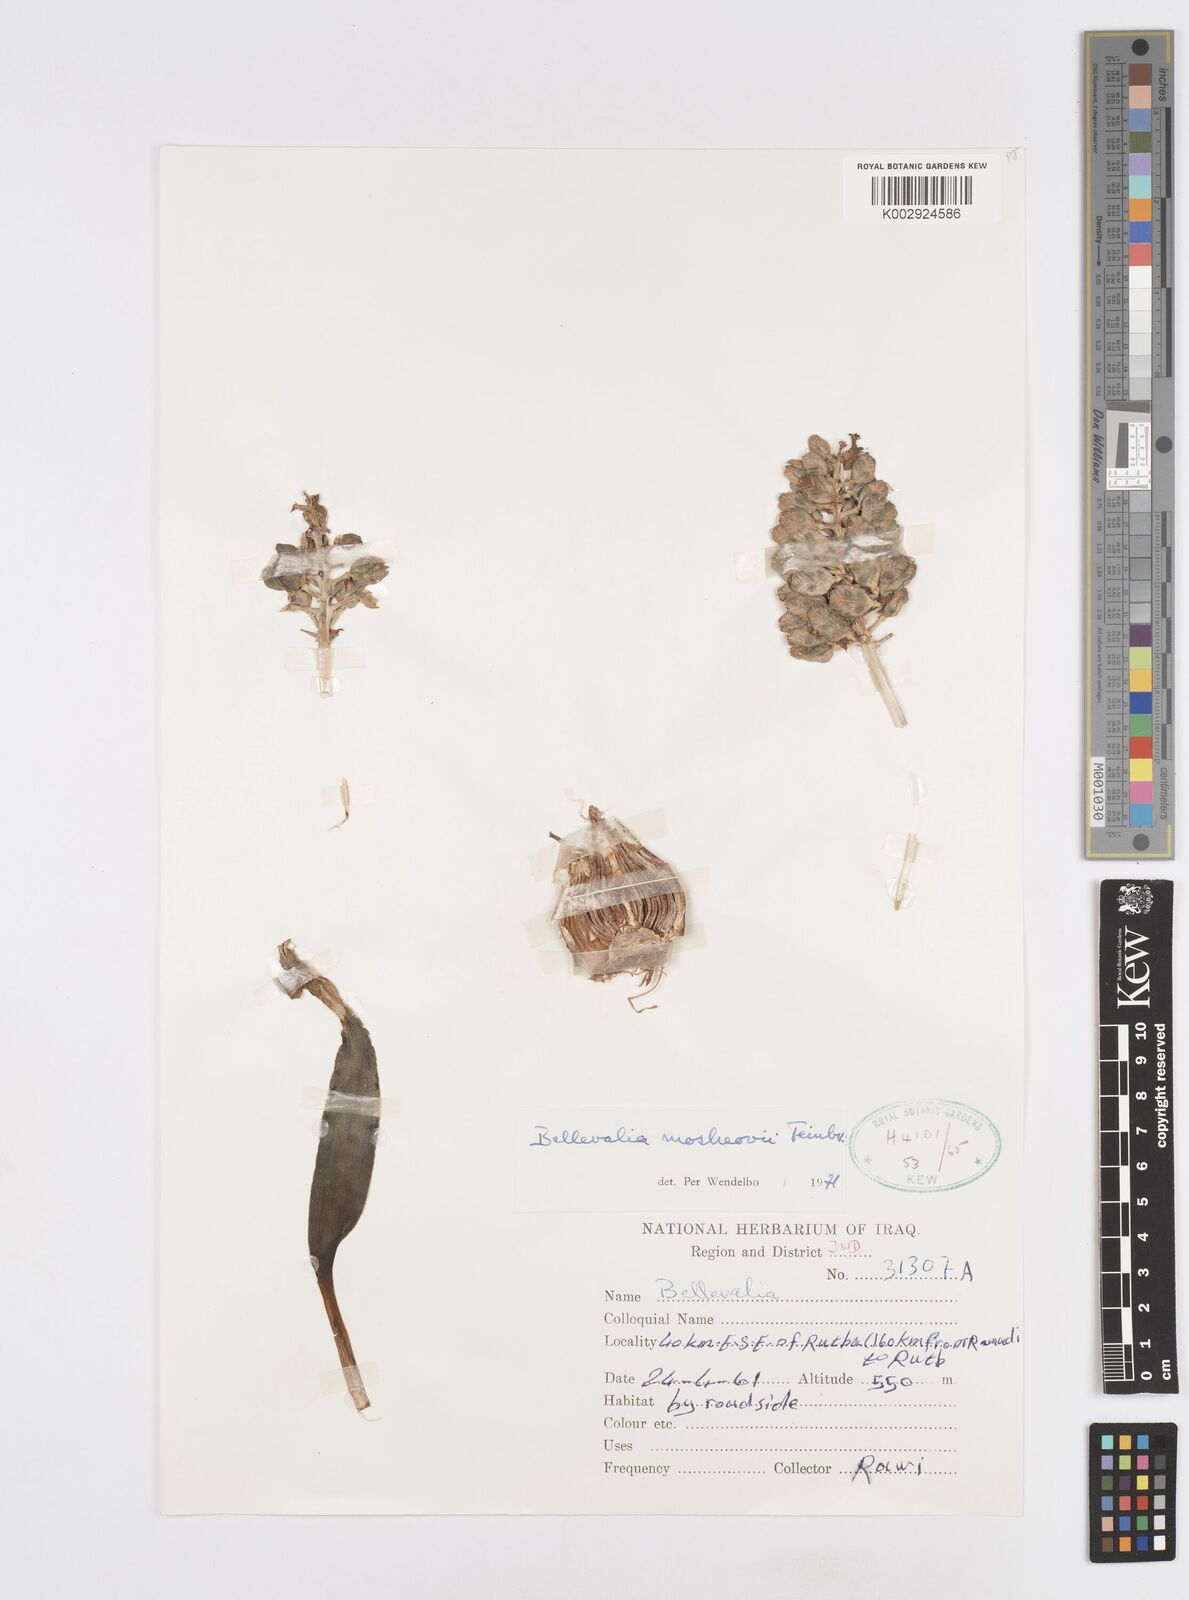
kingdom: Plantae
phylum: Tracheophyta
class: Liliopsida
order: Asparagales
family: Asparagaceae
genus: Bellevalia
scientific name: Bellevalia mosheovii
